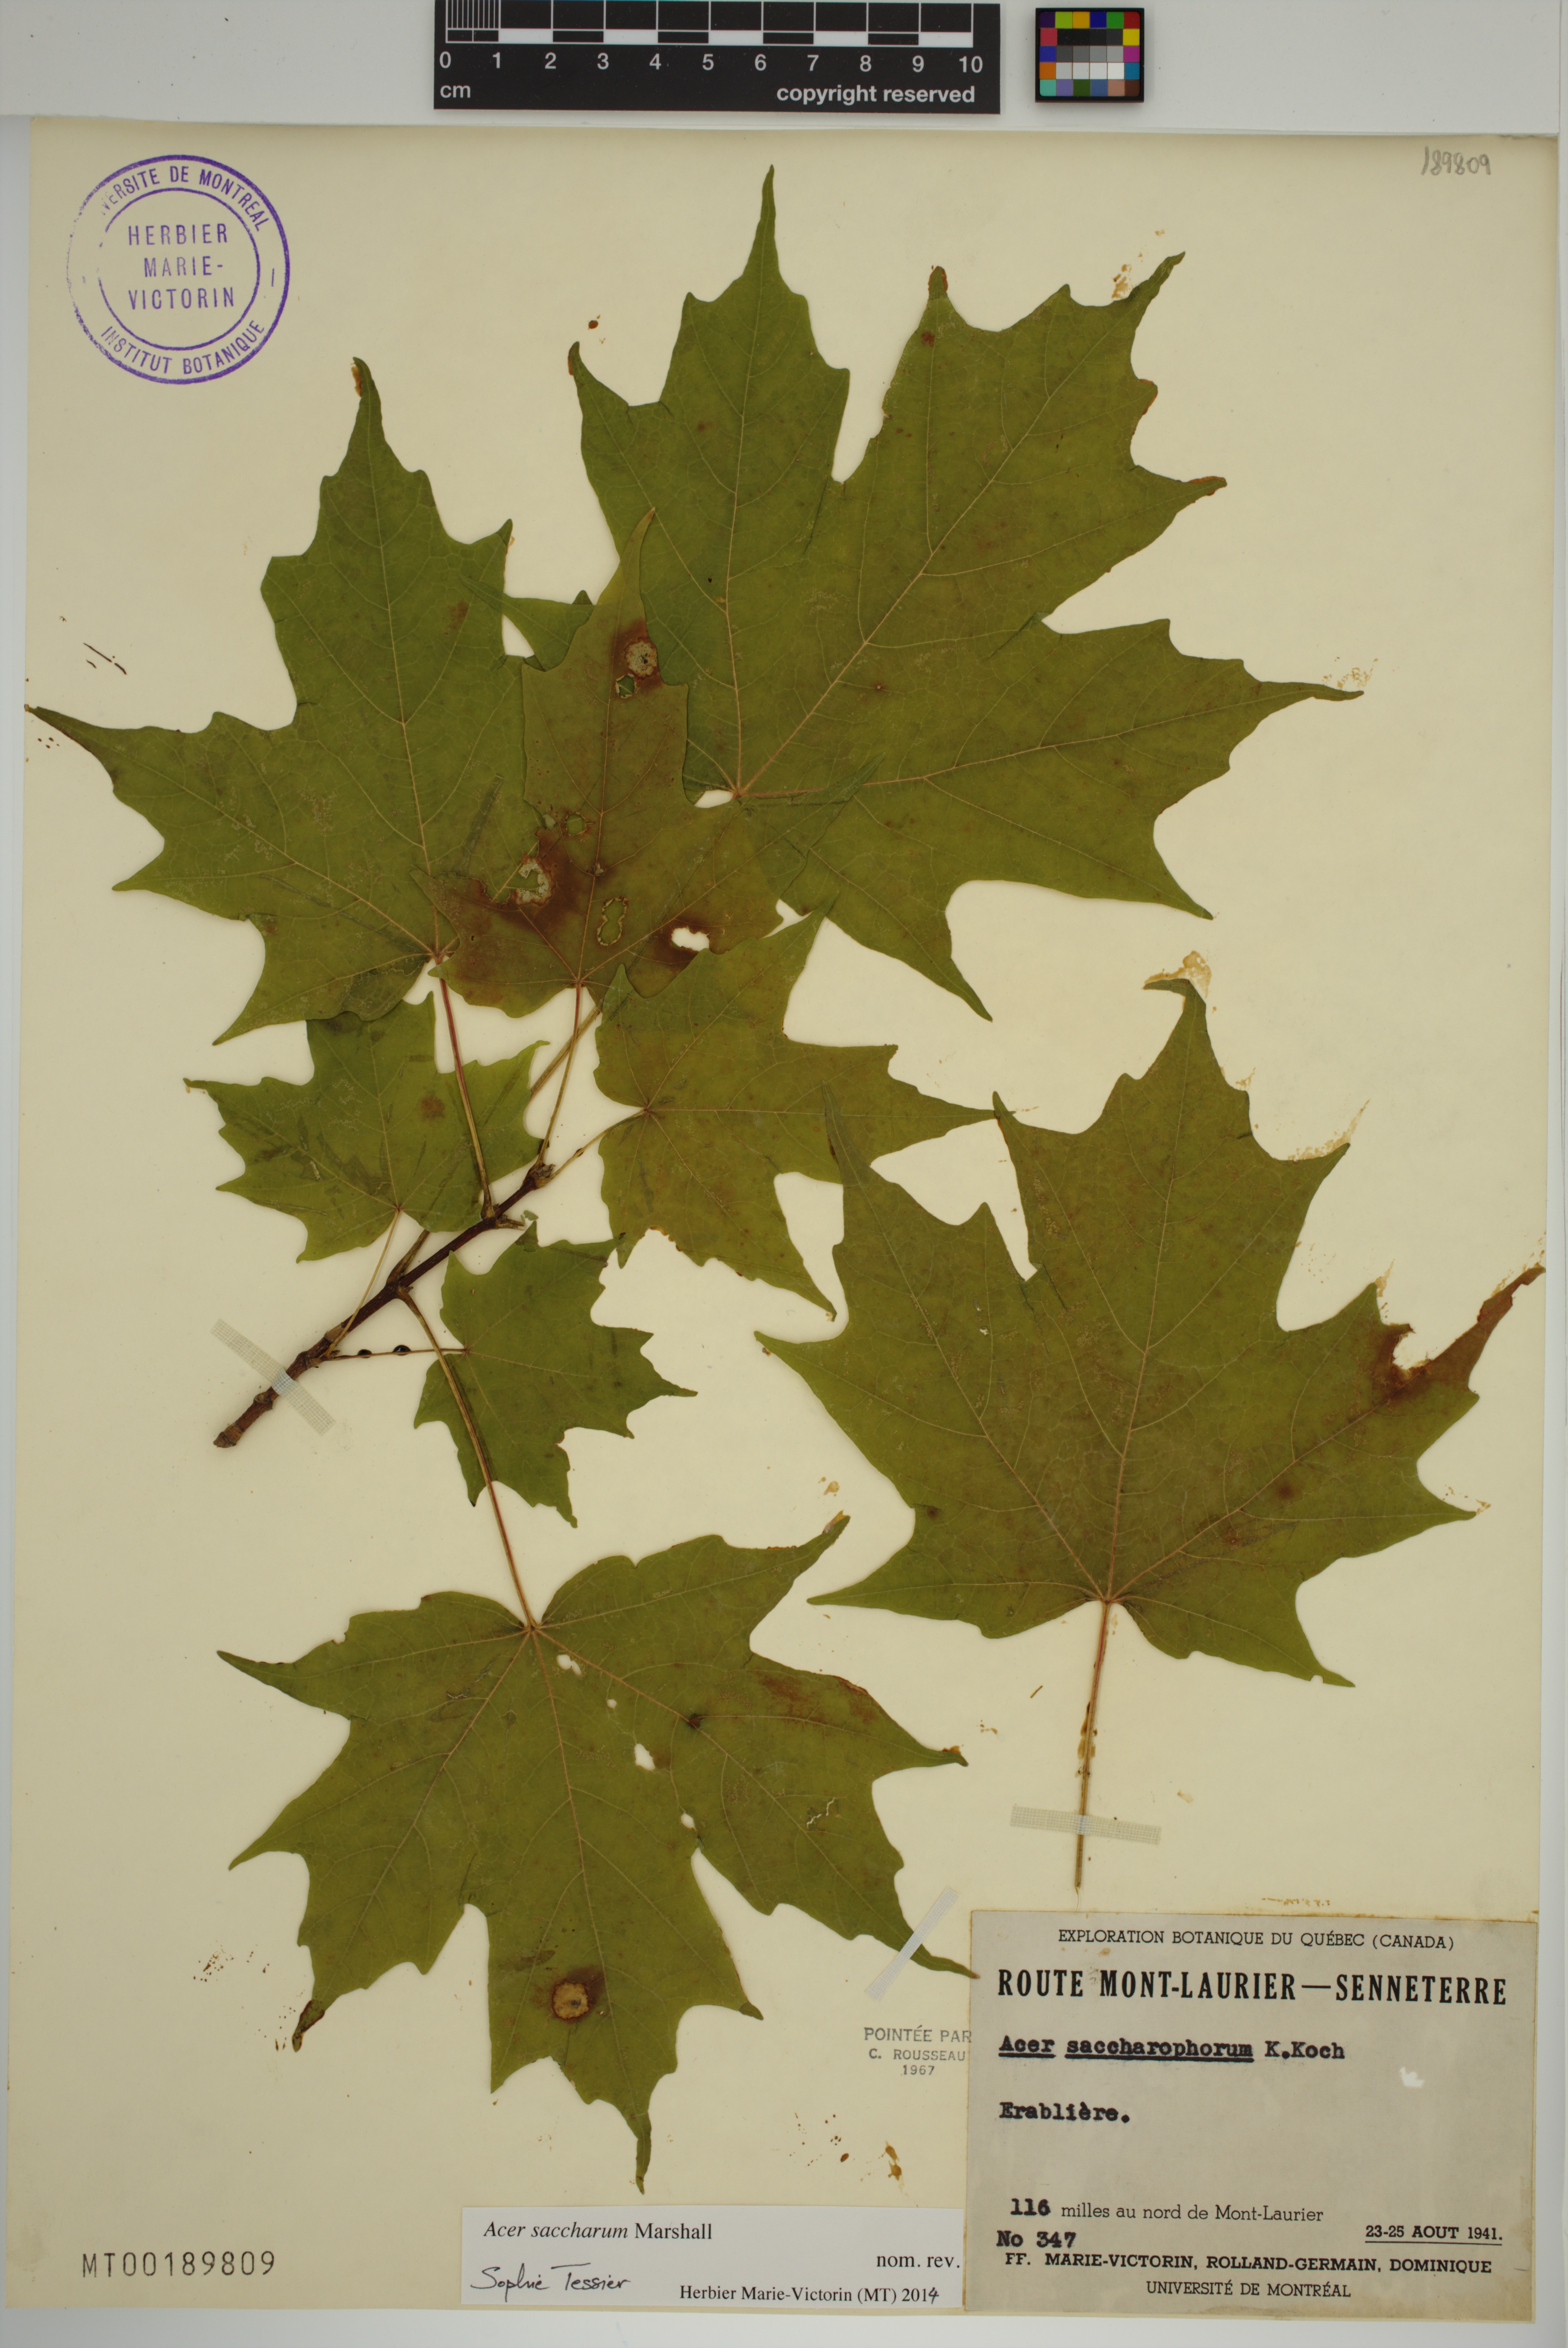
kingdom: Plantae
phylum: Tracheophyta
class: Magnoliopsida
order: Sapindales
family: Sapindaceae
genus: Acer
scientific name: Acer saccharum
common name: Sugar maple
